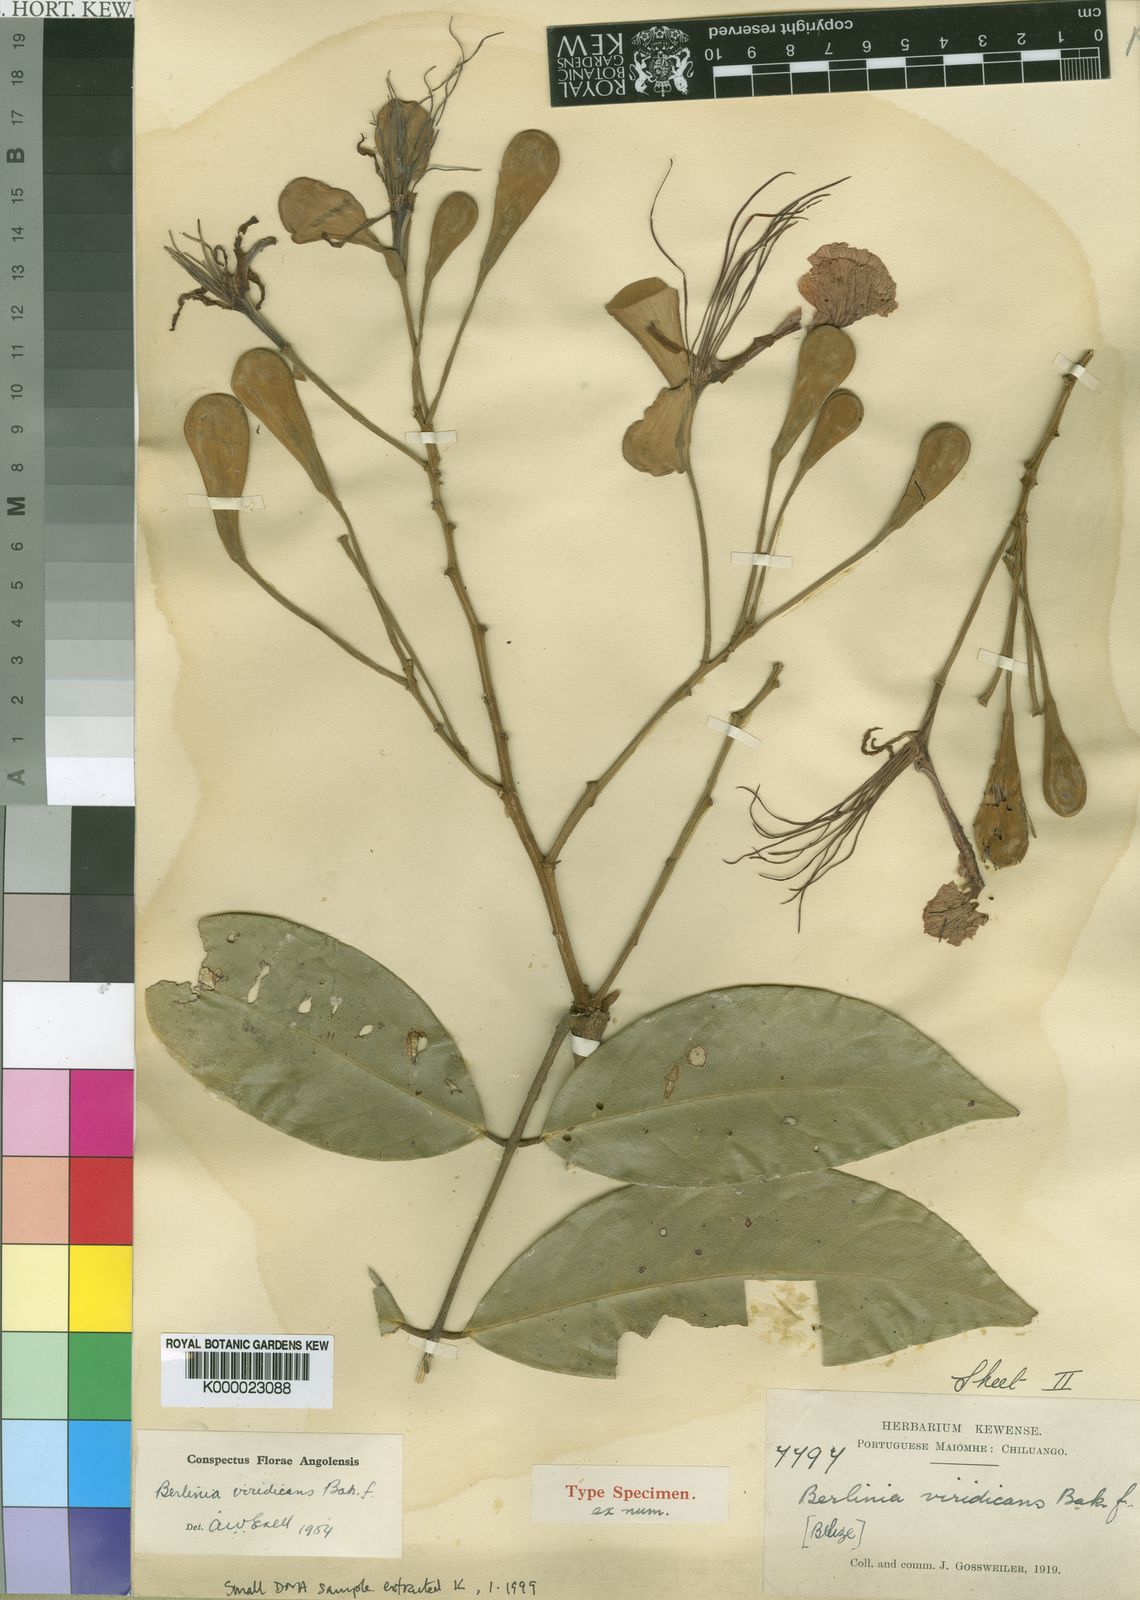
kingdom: Plantae
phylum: Tracheophyta
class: Magnoliopsida
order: Fabales
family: Fabaceae
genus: Berlinia
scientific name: Berlinia viridicans
